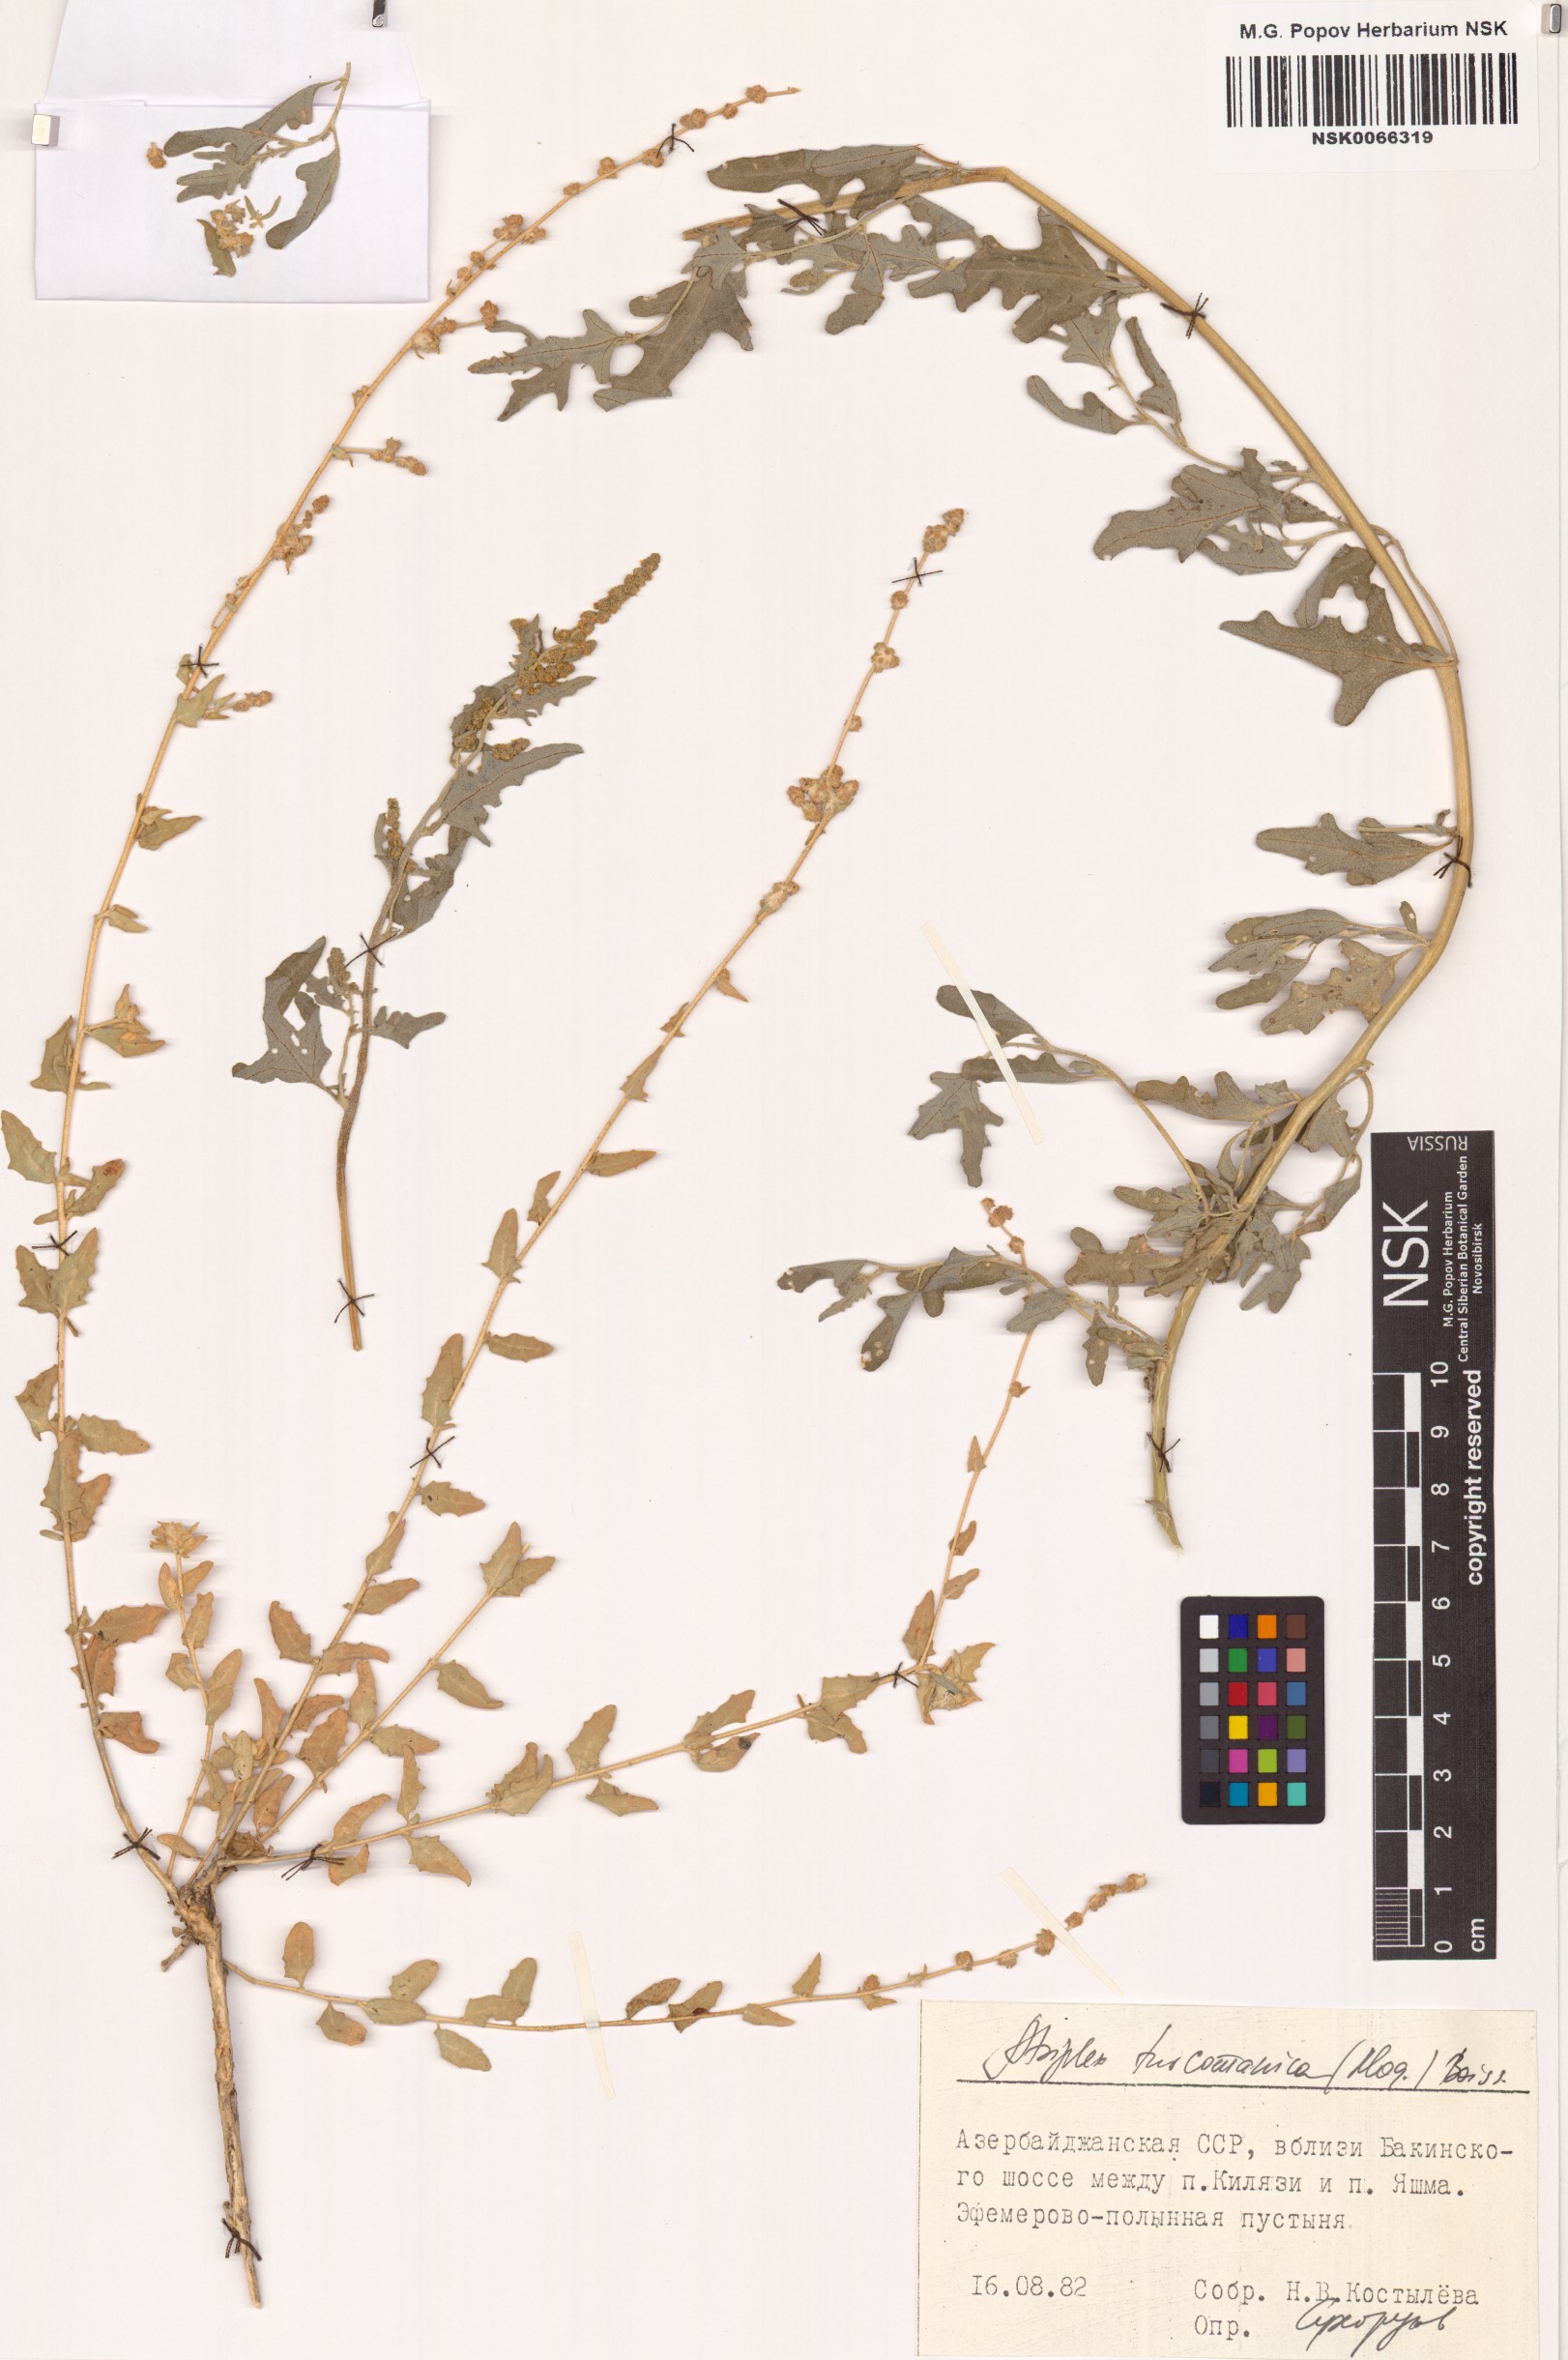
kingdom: Plantae
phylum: Tracheophyta
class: Magnoliopsida
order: Caryophyllales
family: Amaranthaceae
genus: Atriplex
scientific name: Atriplex turcomanica
